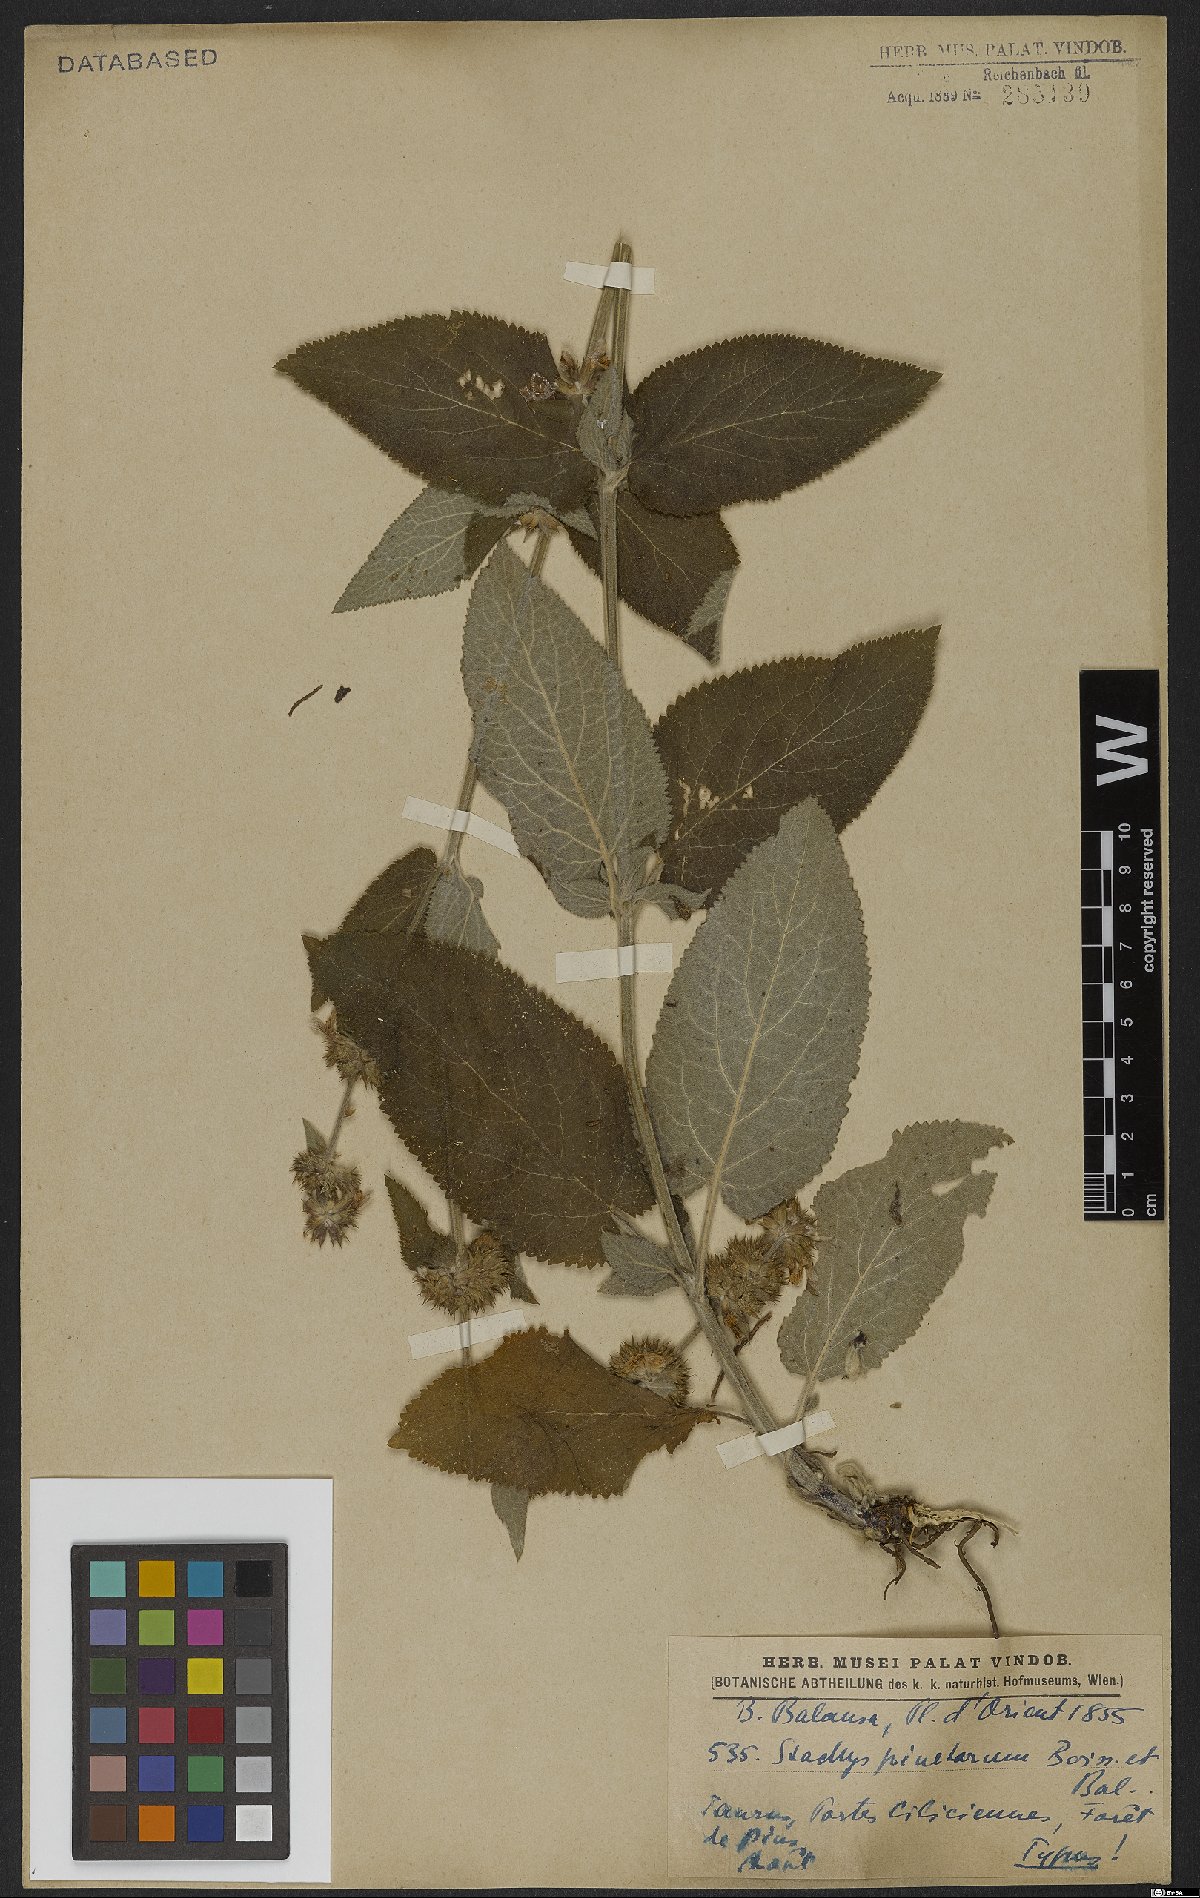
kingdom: Plantae
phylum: Tracheophyta
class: Magnoliopsida
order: Lamiales
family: Lamiaceae
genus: Stachys
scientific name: Stachys pinetorum
